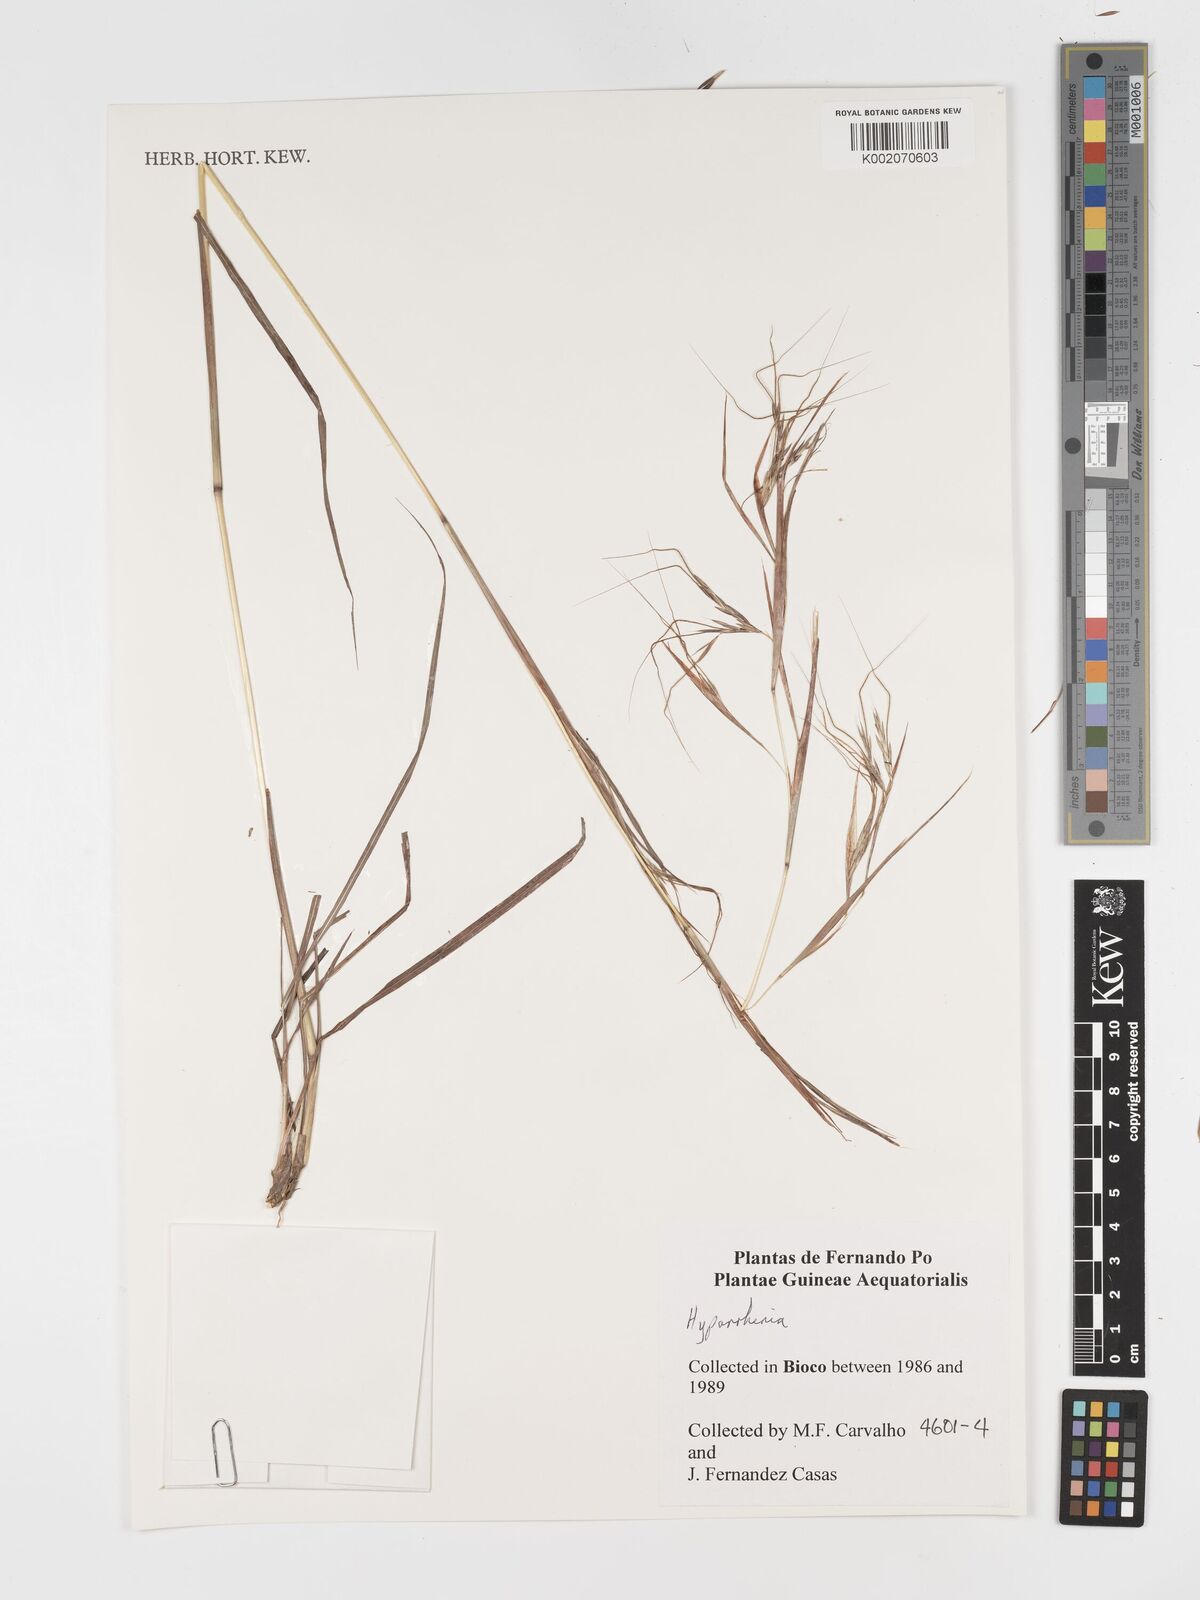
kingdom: Plantae
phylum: Tracheophyta
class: Liliopsida
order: Poales
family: Poaceae
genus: Hyparrhenia
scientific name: Hyparrhenia
